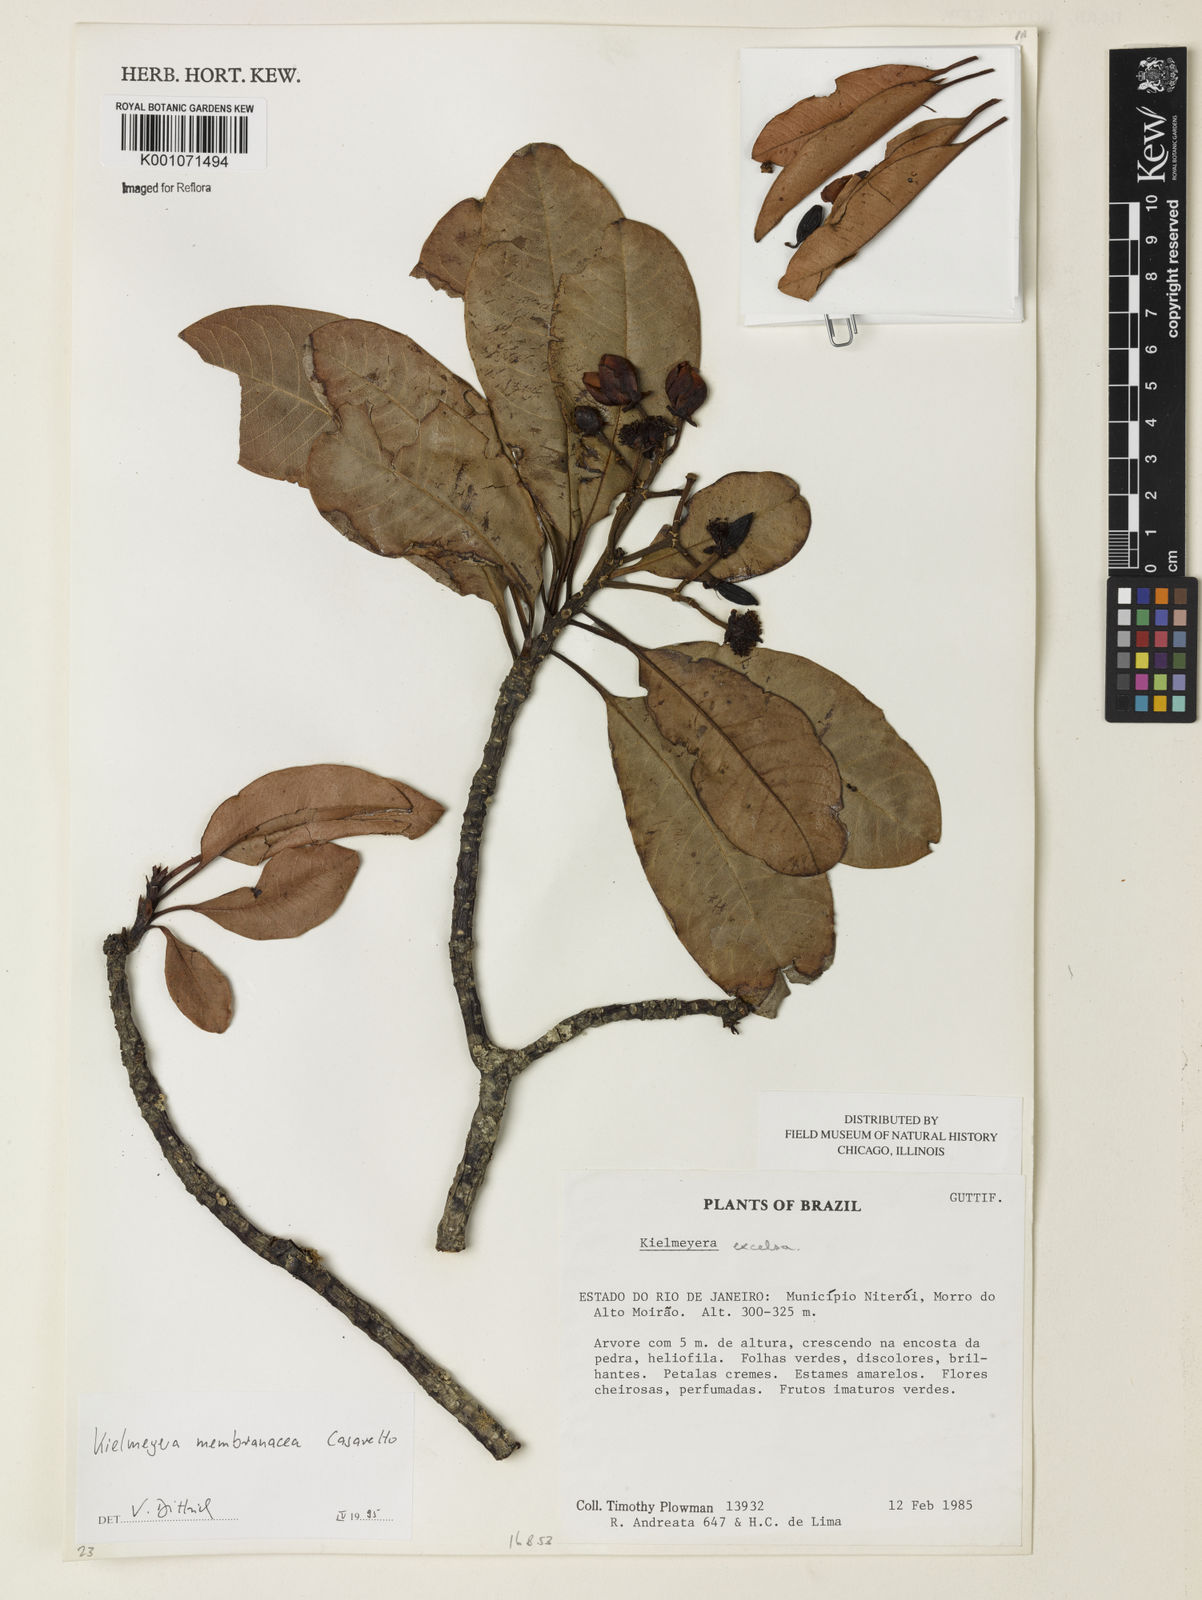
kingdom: Plantae
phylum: Tracheophyta
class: Magnoliopsida
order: Malpighiales
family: Calophyllaceae
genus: Kielmeyera
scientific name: Kielmeyera membranacea
